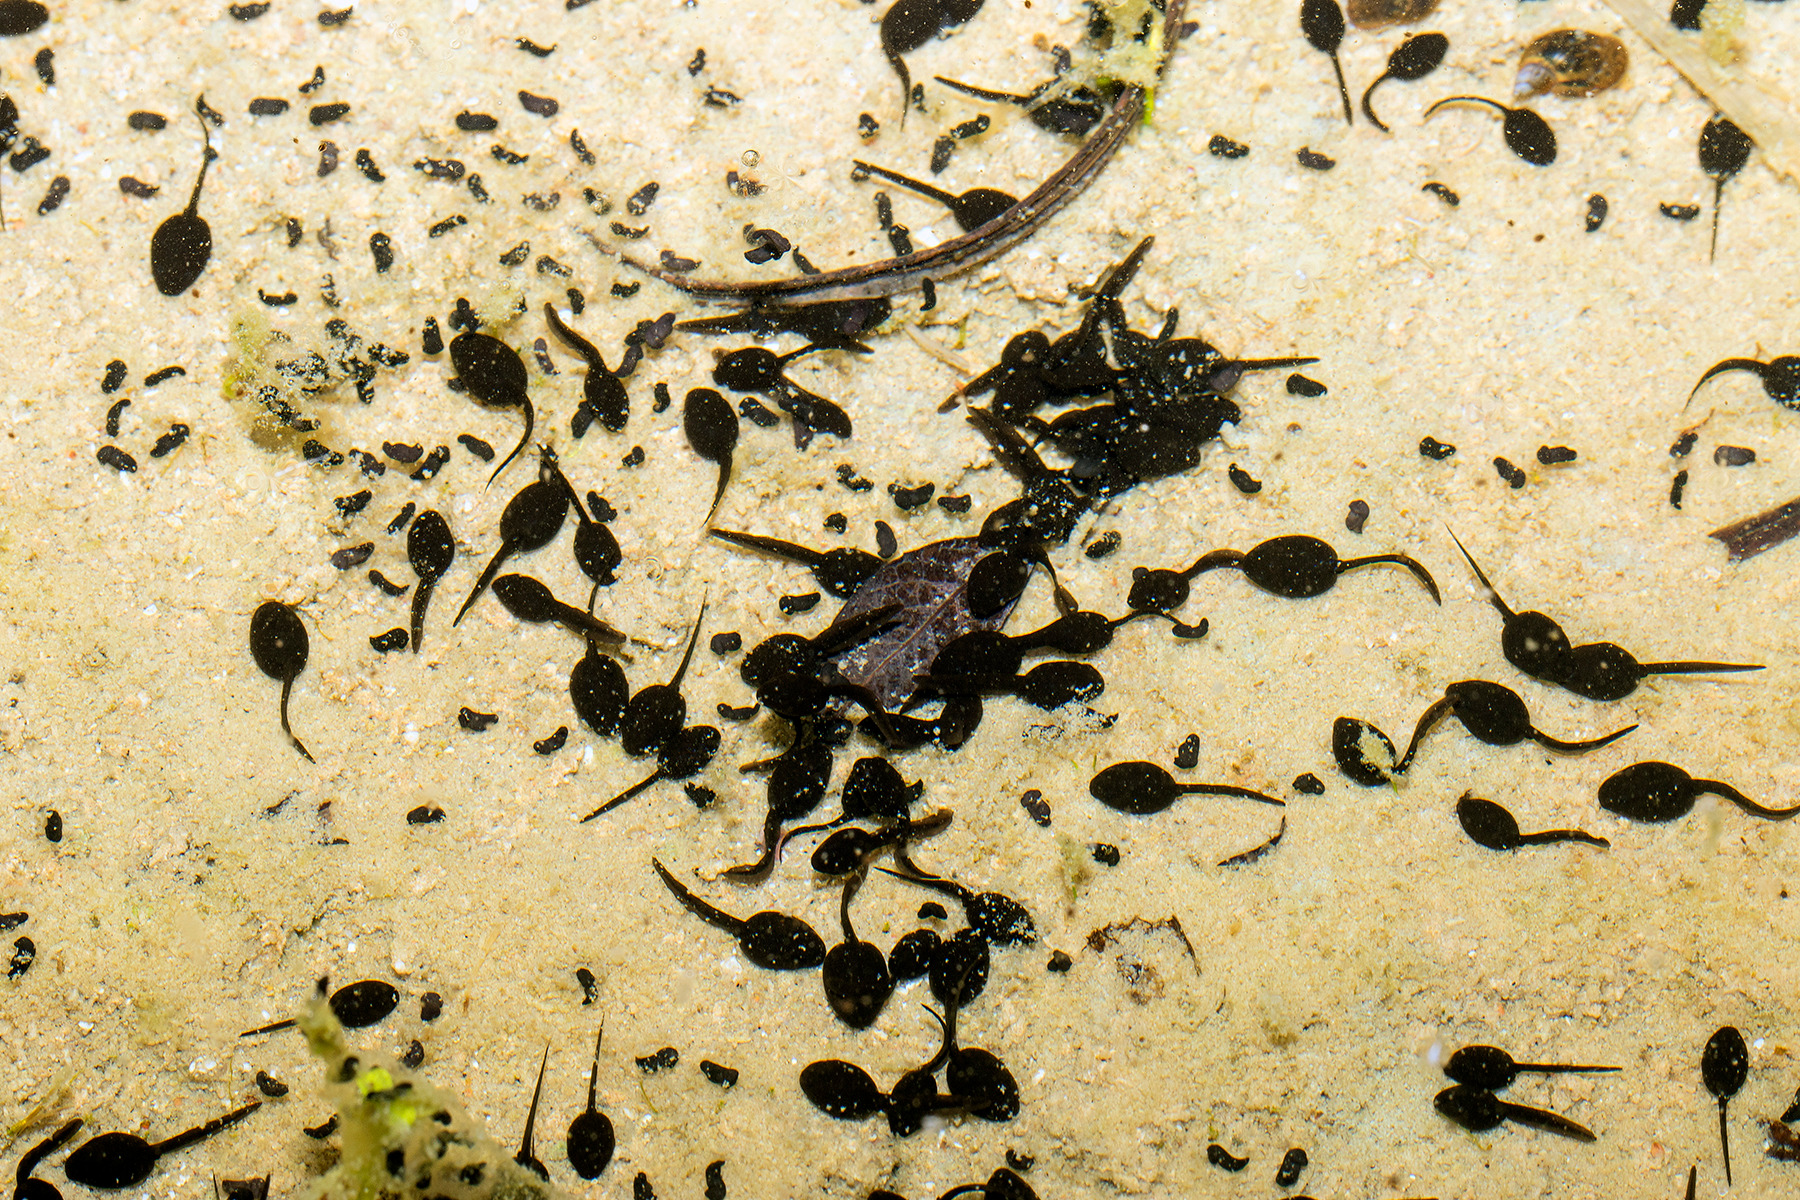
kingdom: Animalia
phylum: Chordata
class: Amphibia
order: Anura
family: Bufonidae
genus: Epidalea
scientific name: Epidalea calamita
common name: Strandtudse
